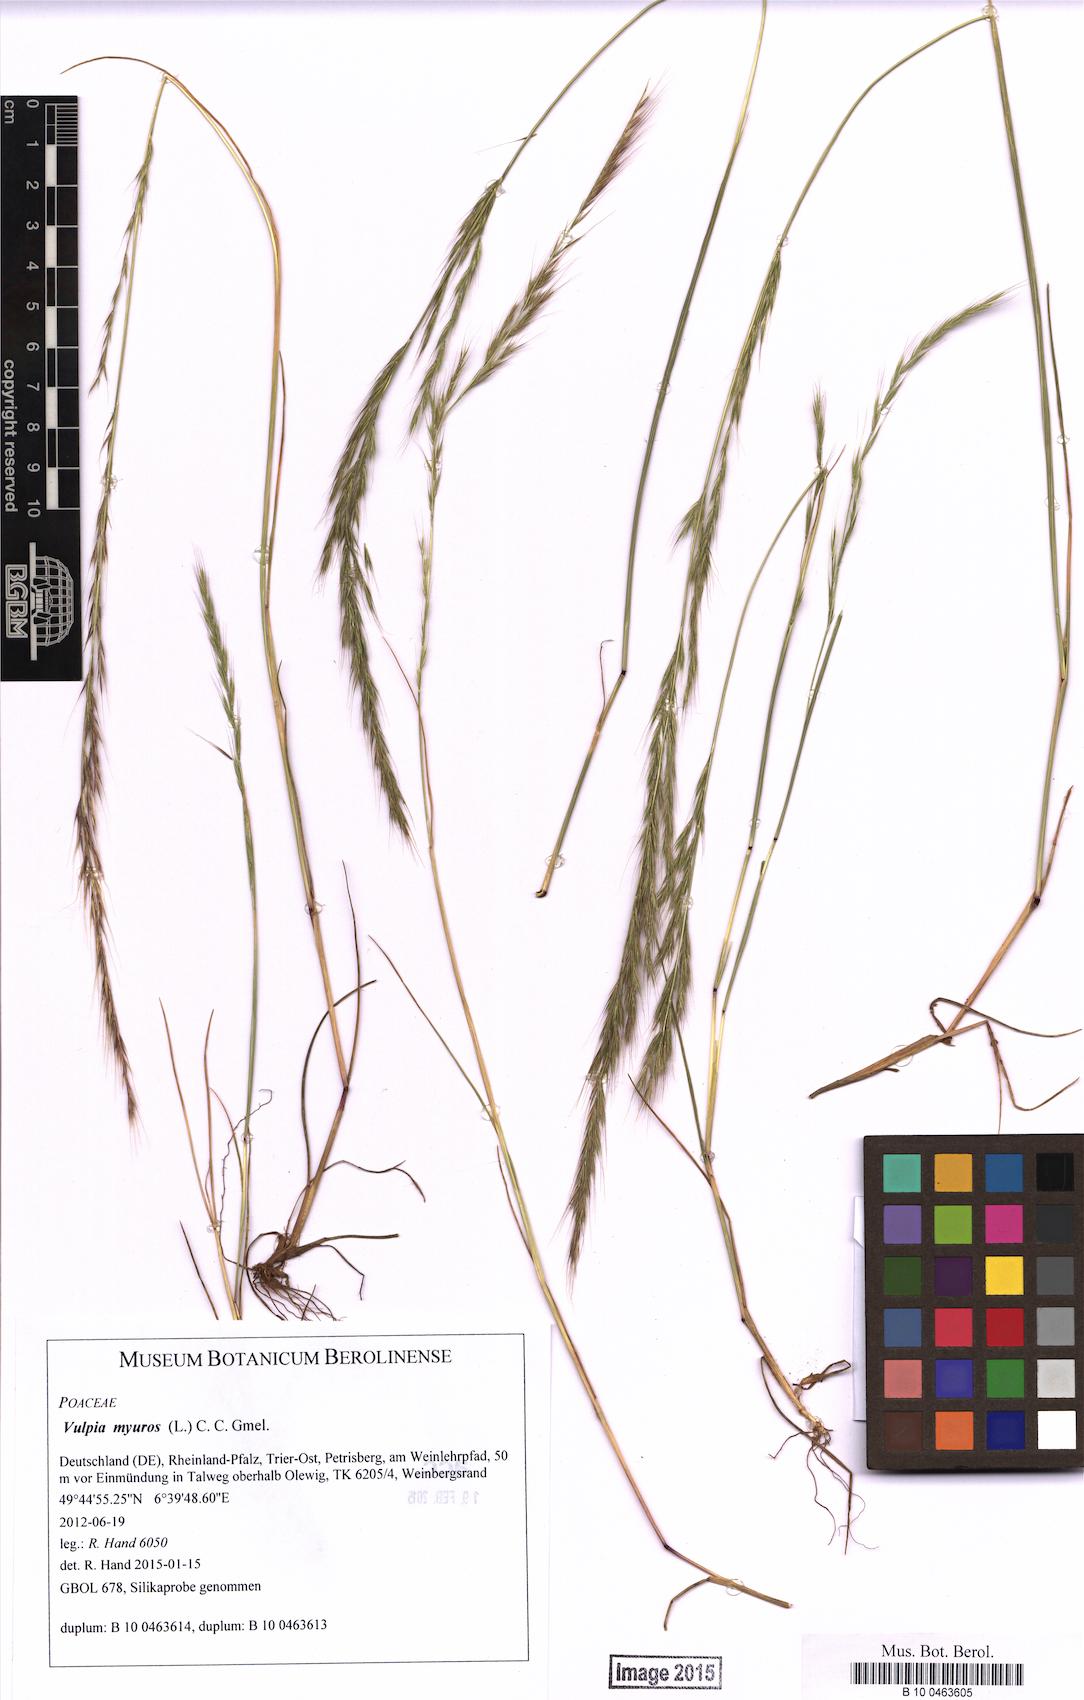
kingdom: Plantae
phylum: Tracheophyta
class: Liliopsida
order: Poales
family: Poaceae
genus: Festuca
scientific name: Festuca myuros
